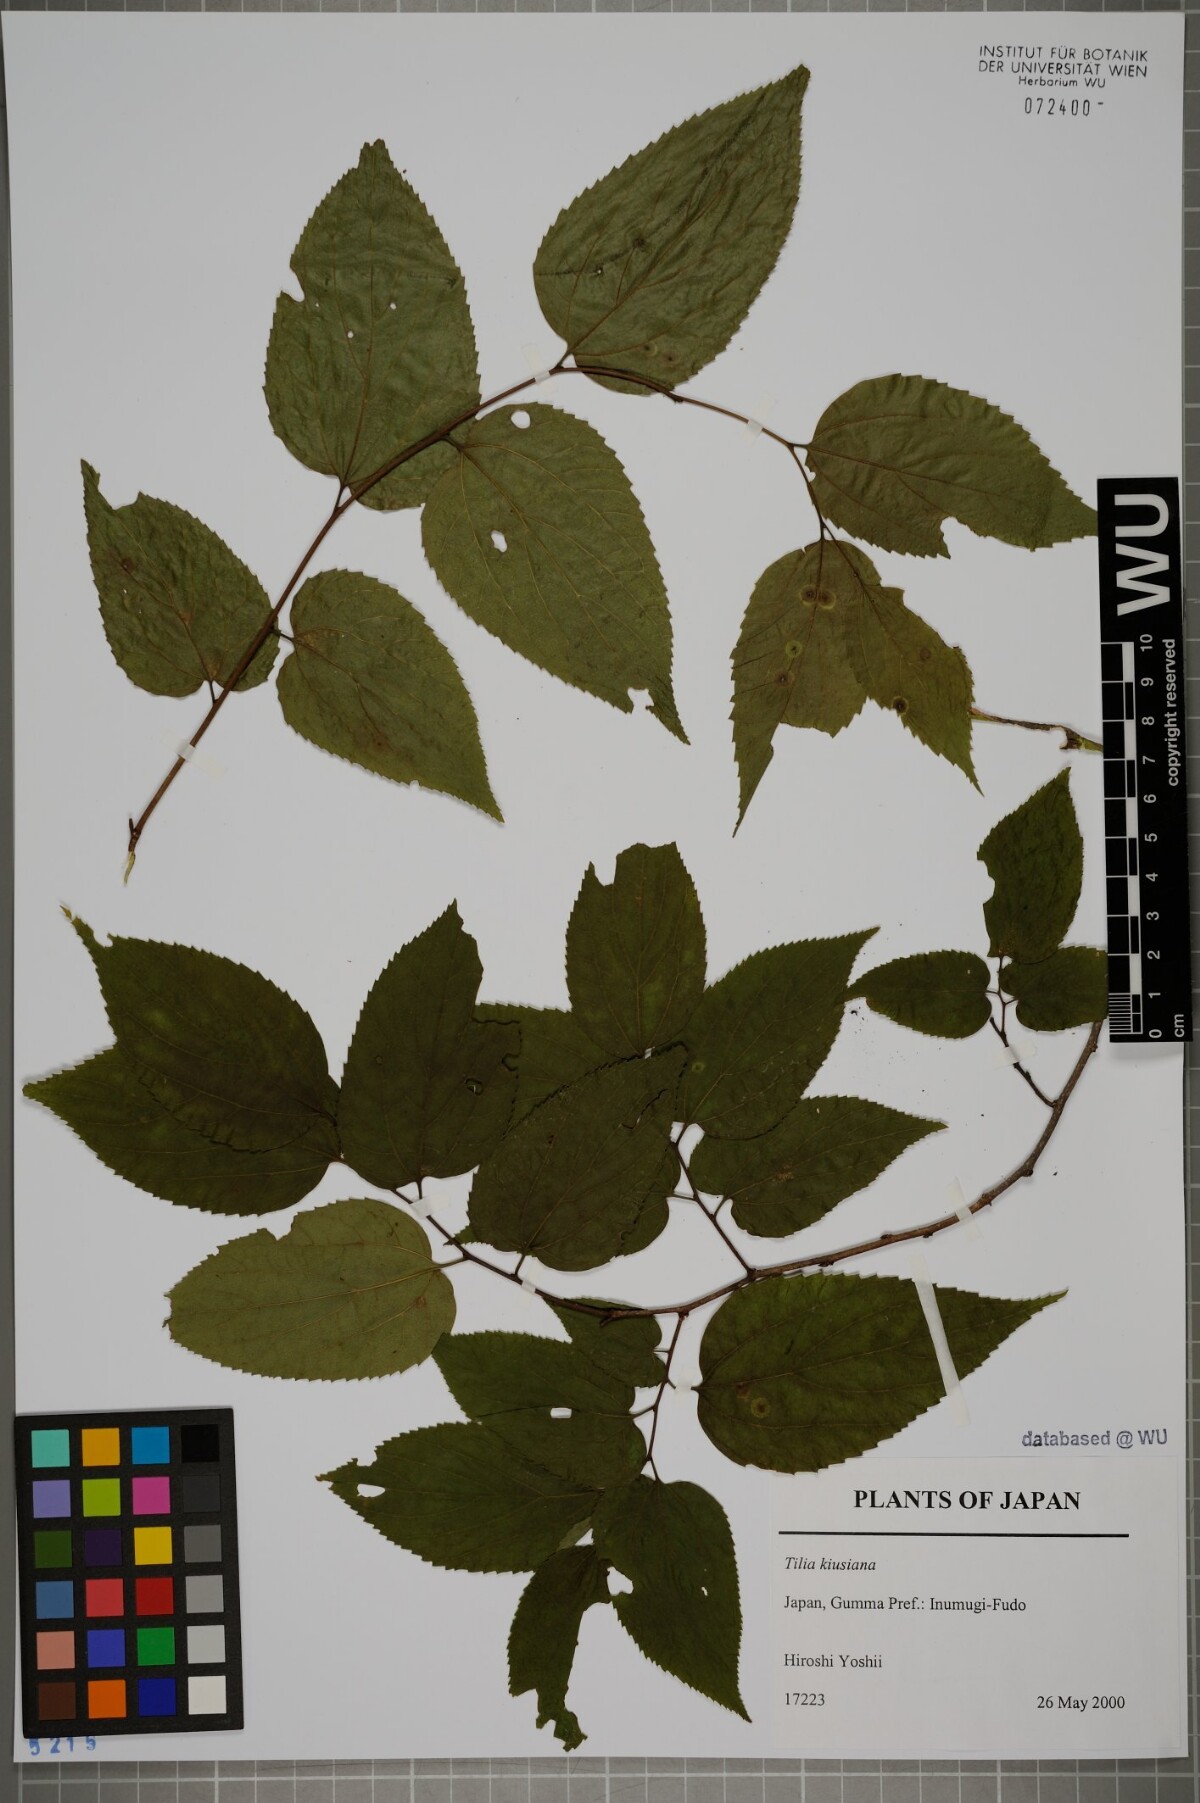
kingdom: Plantae
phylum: Tracheophyta
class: Magnoliopsida
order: Malvales
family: Malvaceae
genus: Tilia
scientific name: Tilia kiusiana
